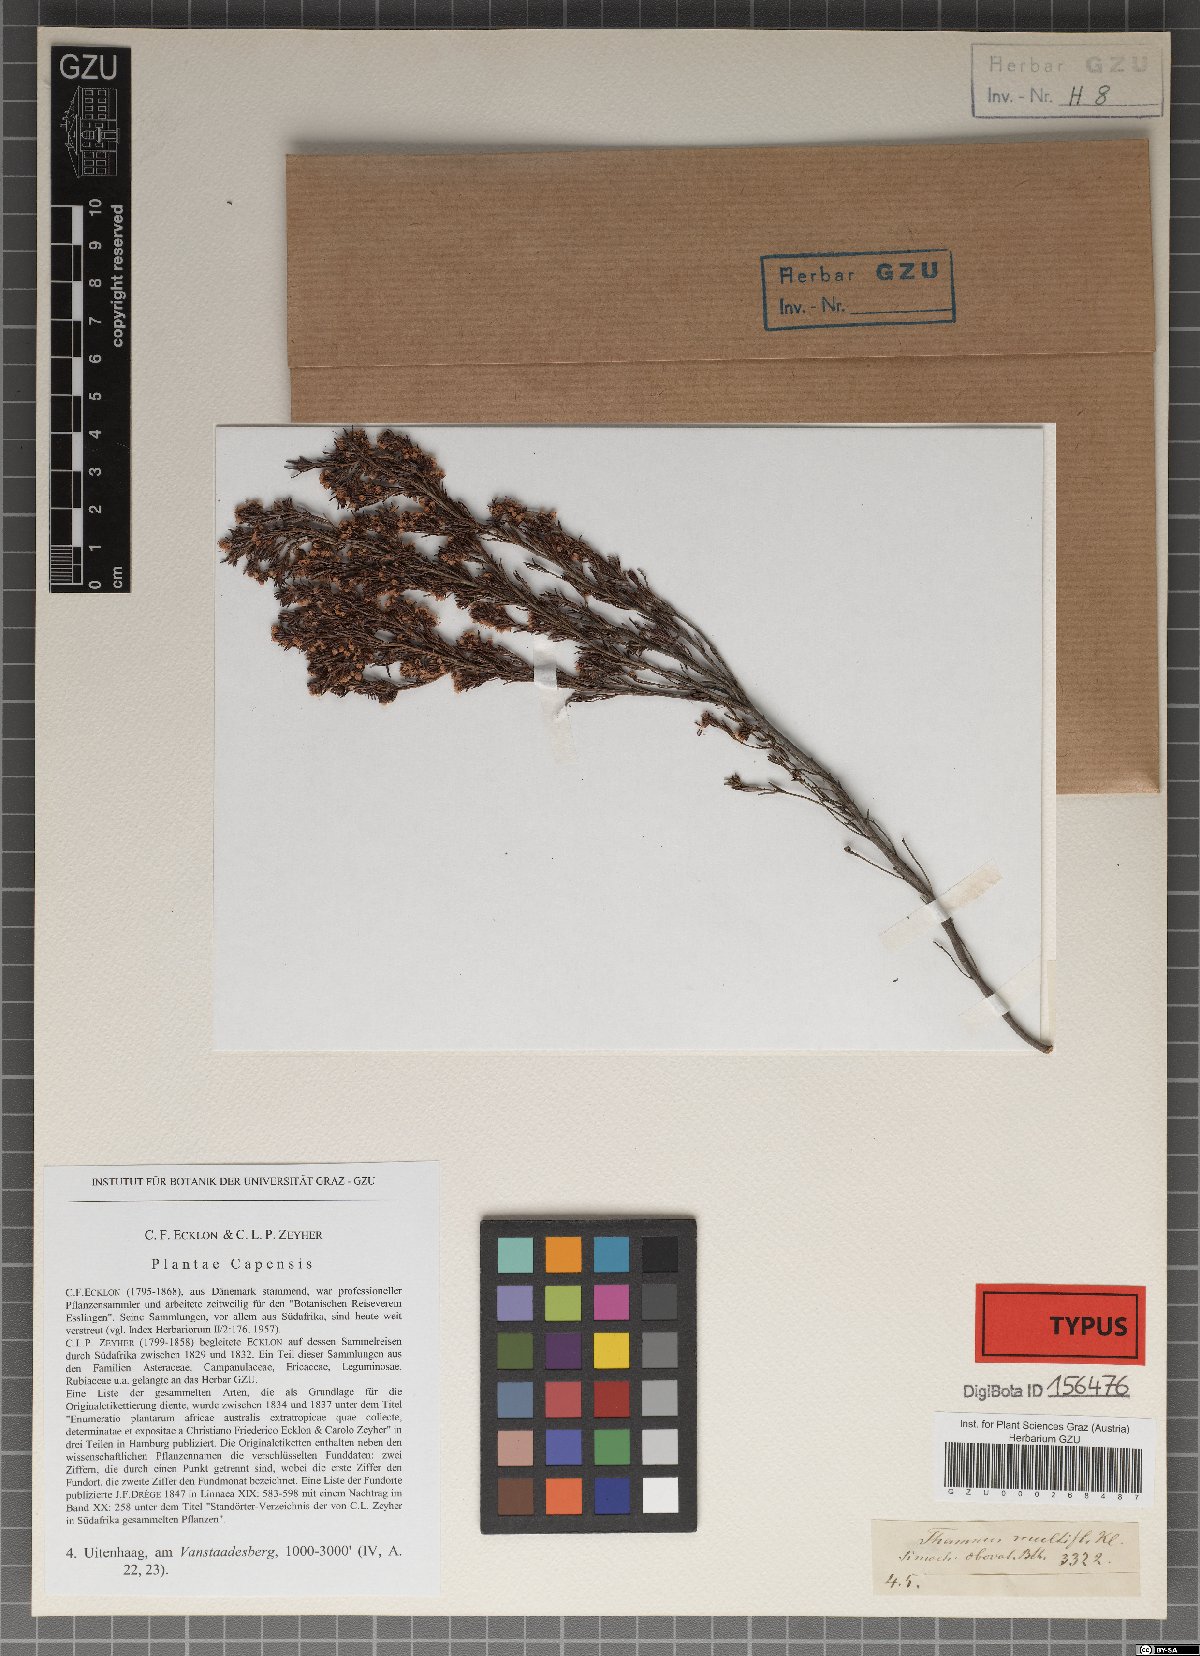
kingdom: Plantae
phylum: Tracheophyta
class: Magnoliopsida
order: Ericales
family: Ericaceae
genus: Erica
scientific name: Erica thamnoides
